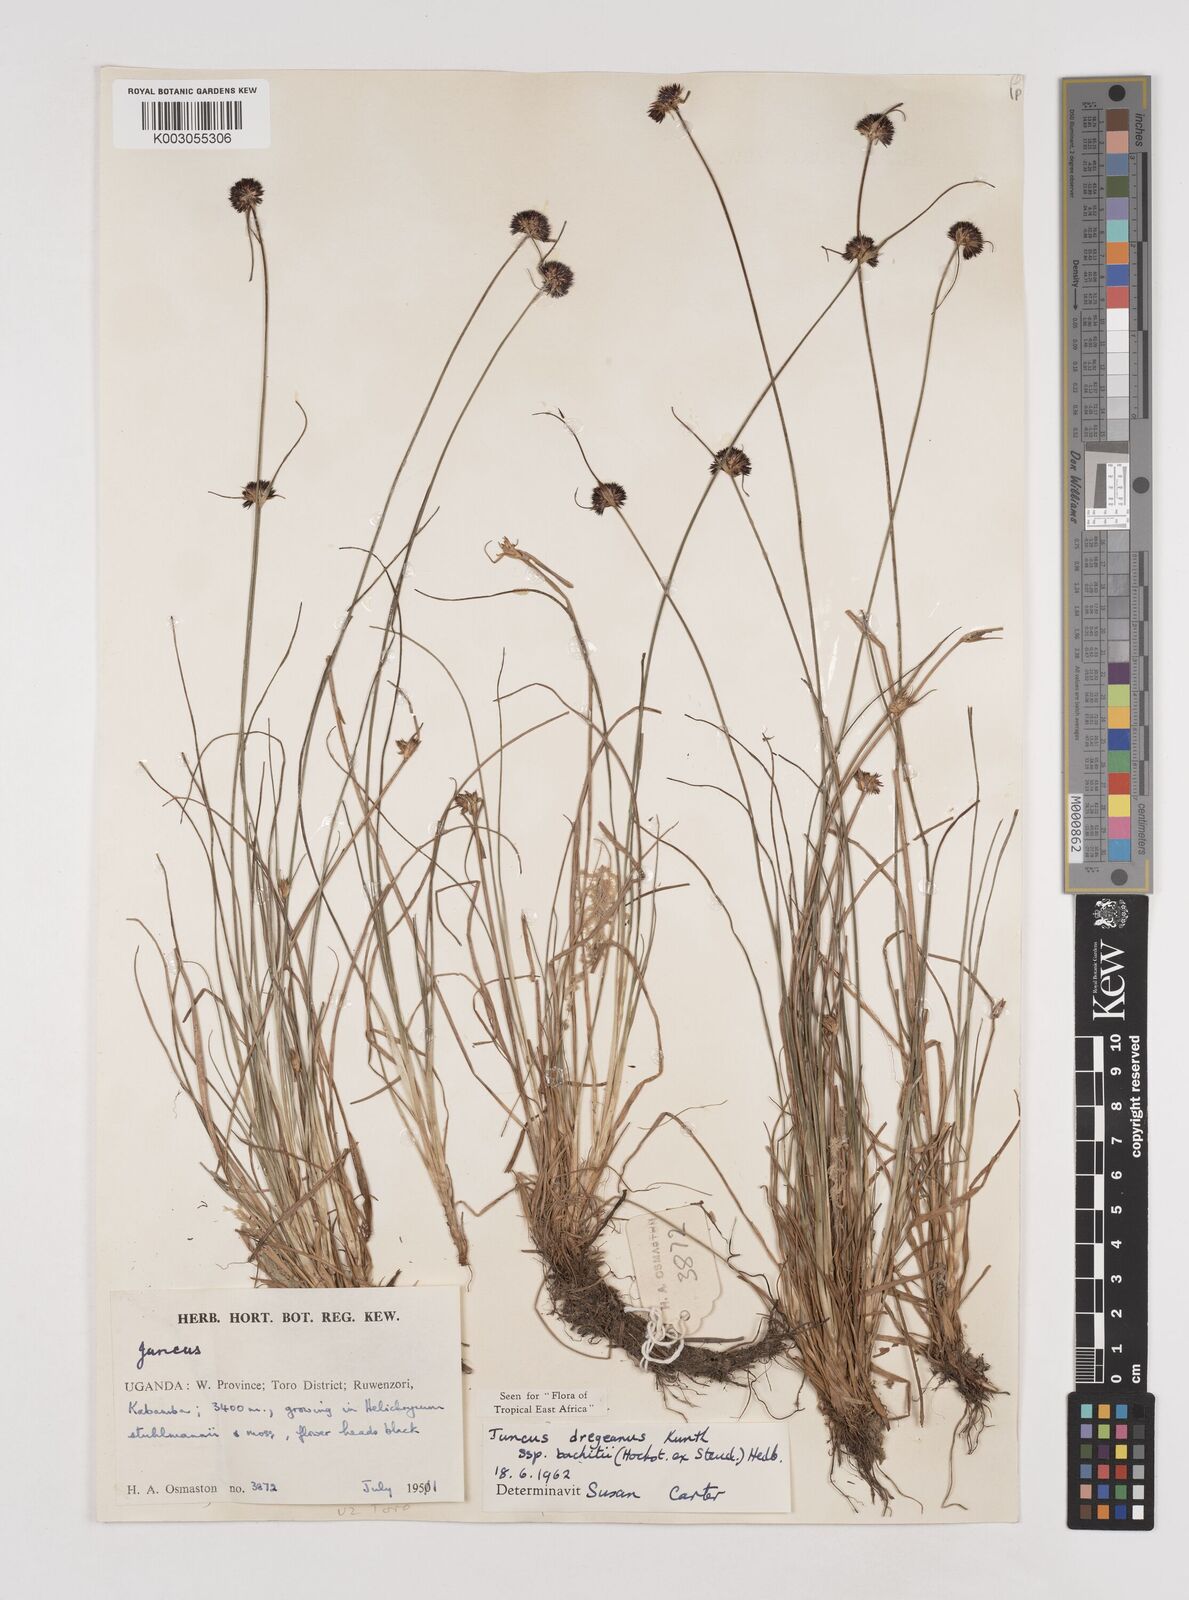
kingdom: Plantae
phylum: Tracheophyta
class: Liliopsida
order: Poales
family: Juncaceae
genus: Juncus
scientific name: Juncus dregeanus
